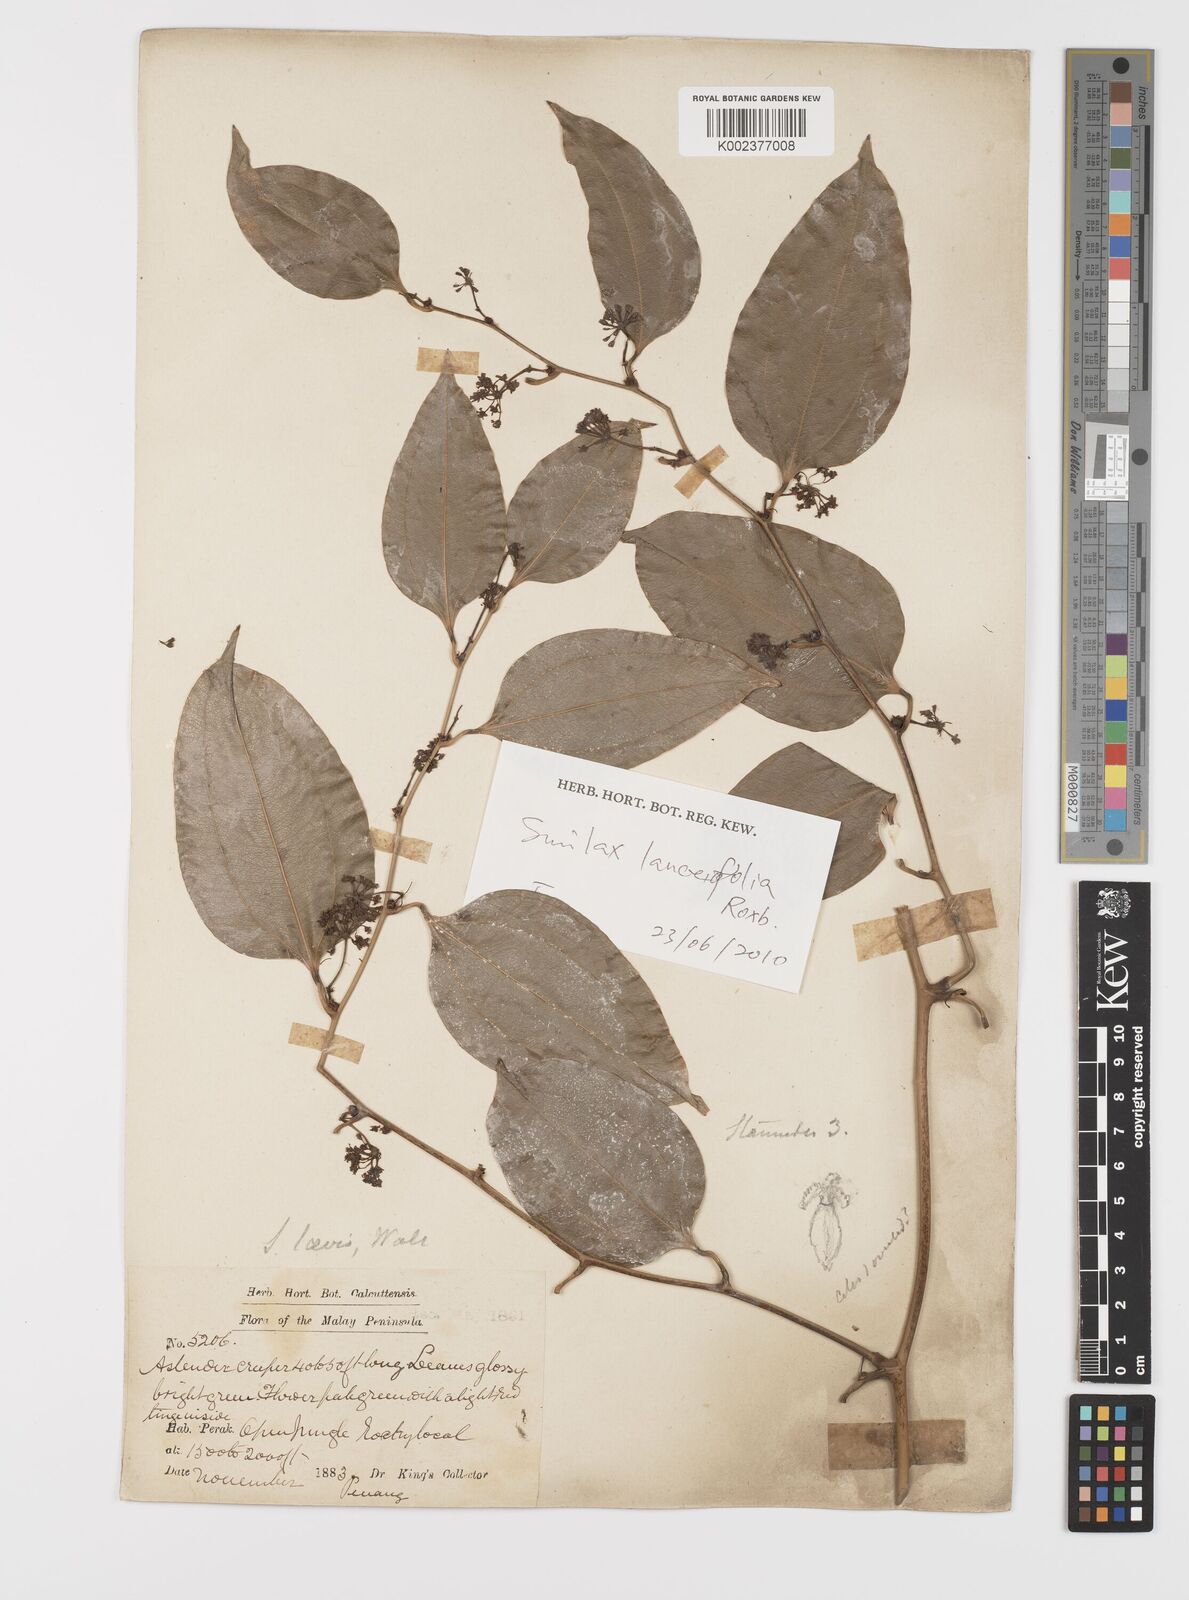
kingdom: Plantae
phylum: Tracheophyta
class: Liliopsida
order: Liliales
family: Smilacaceae
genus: Smilax
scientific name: Smilax laevis
